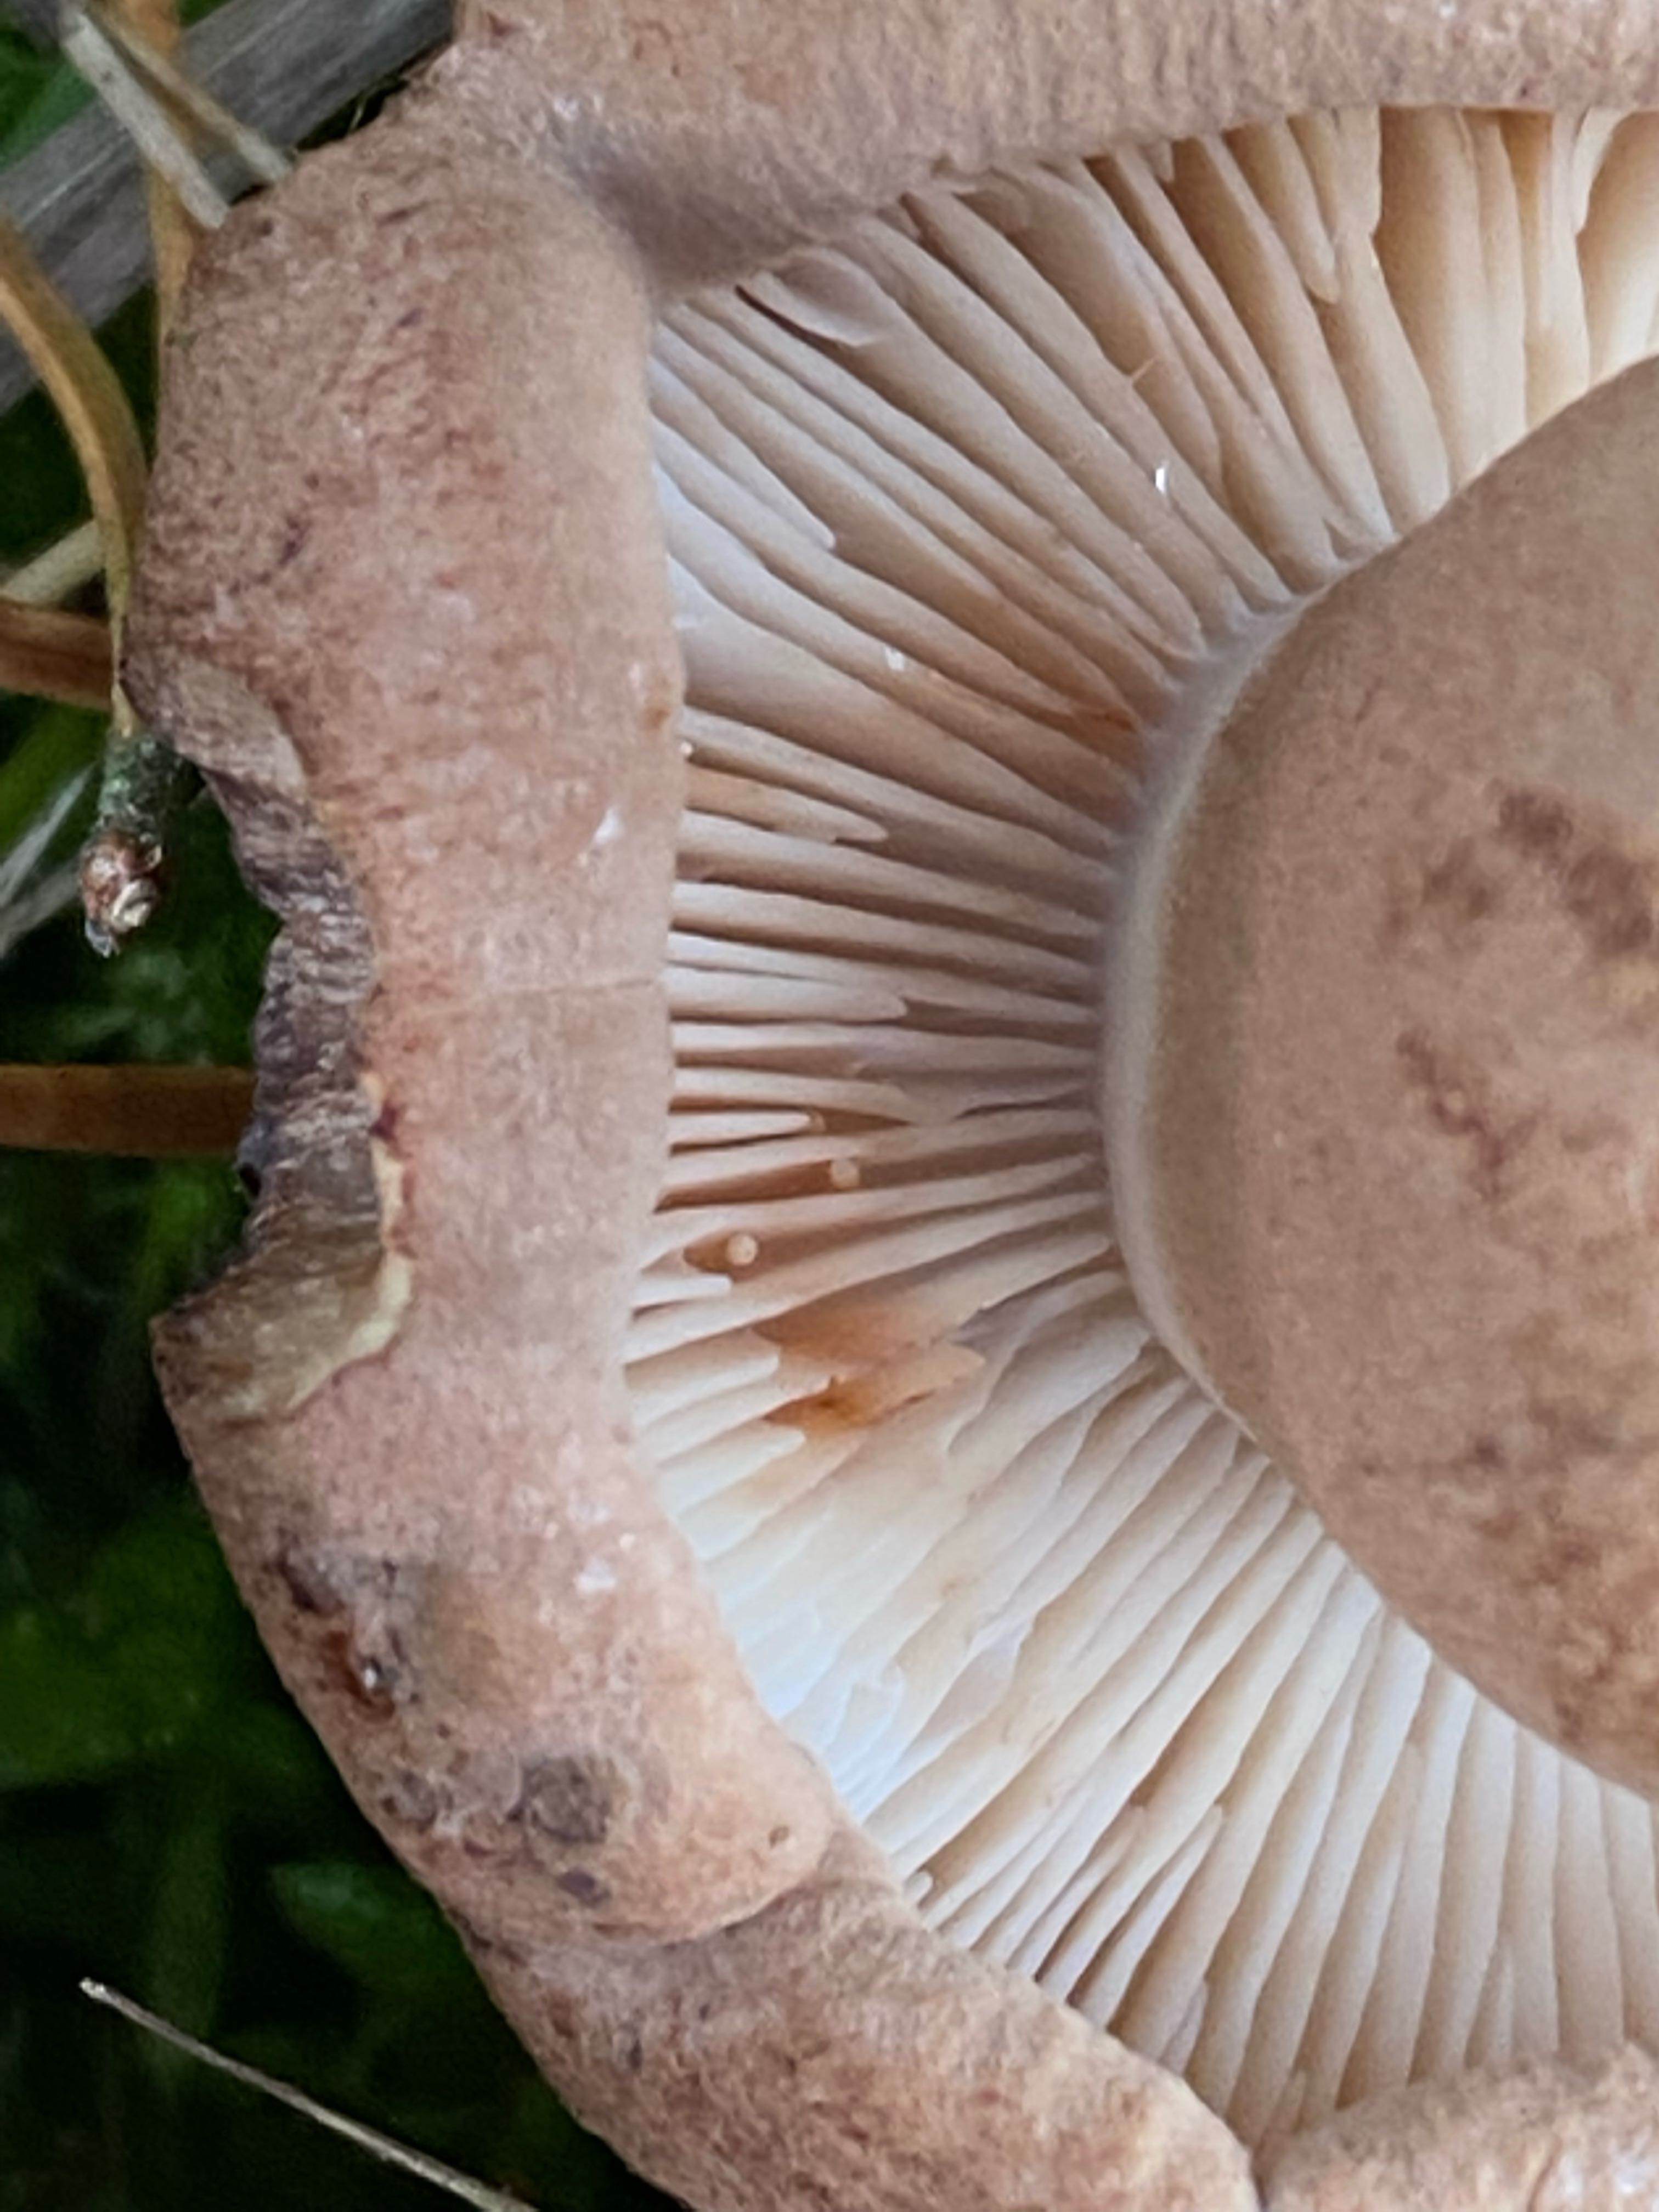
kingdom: Fungi
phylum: Basidiomycota
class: Agaricomycetes
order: Agaricales
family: Tricholomataceae
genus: Tricholoma
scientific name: Tricholoma imbricatum
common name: skællet ridderhat
